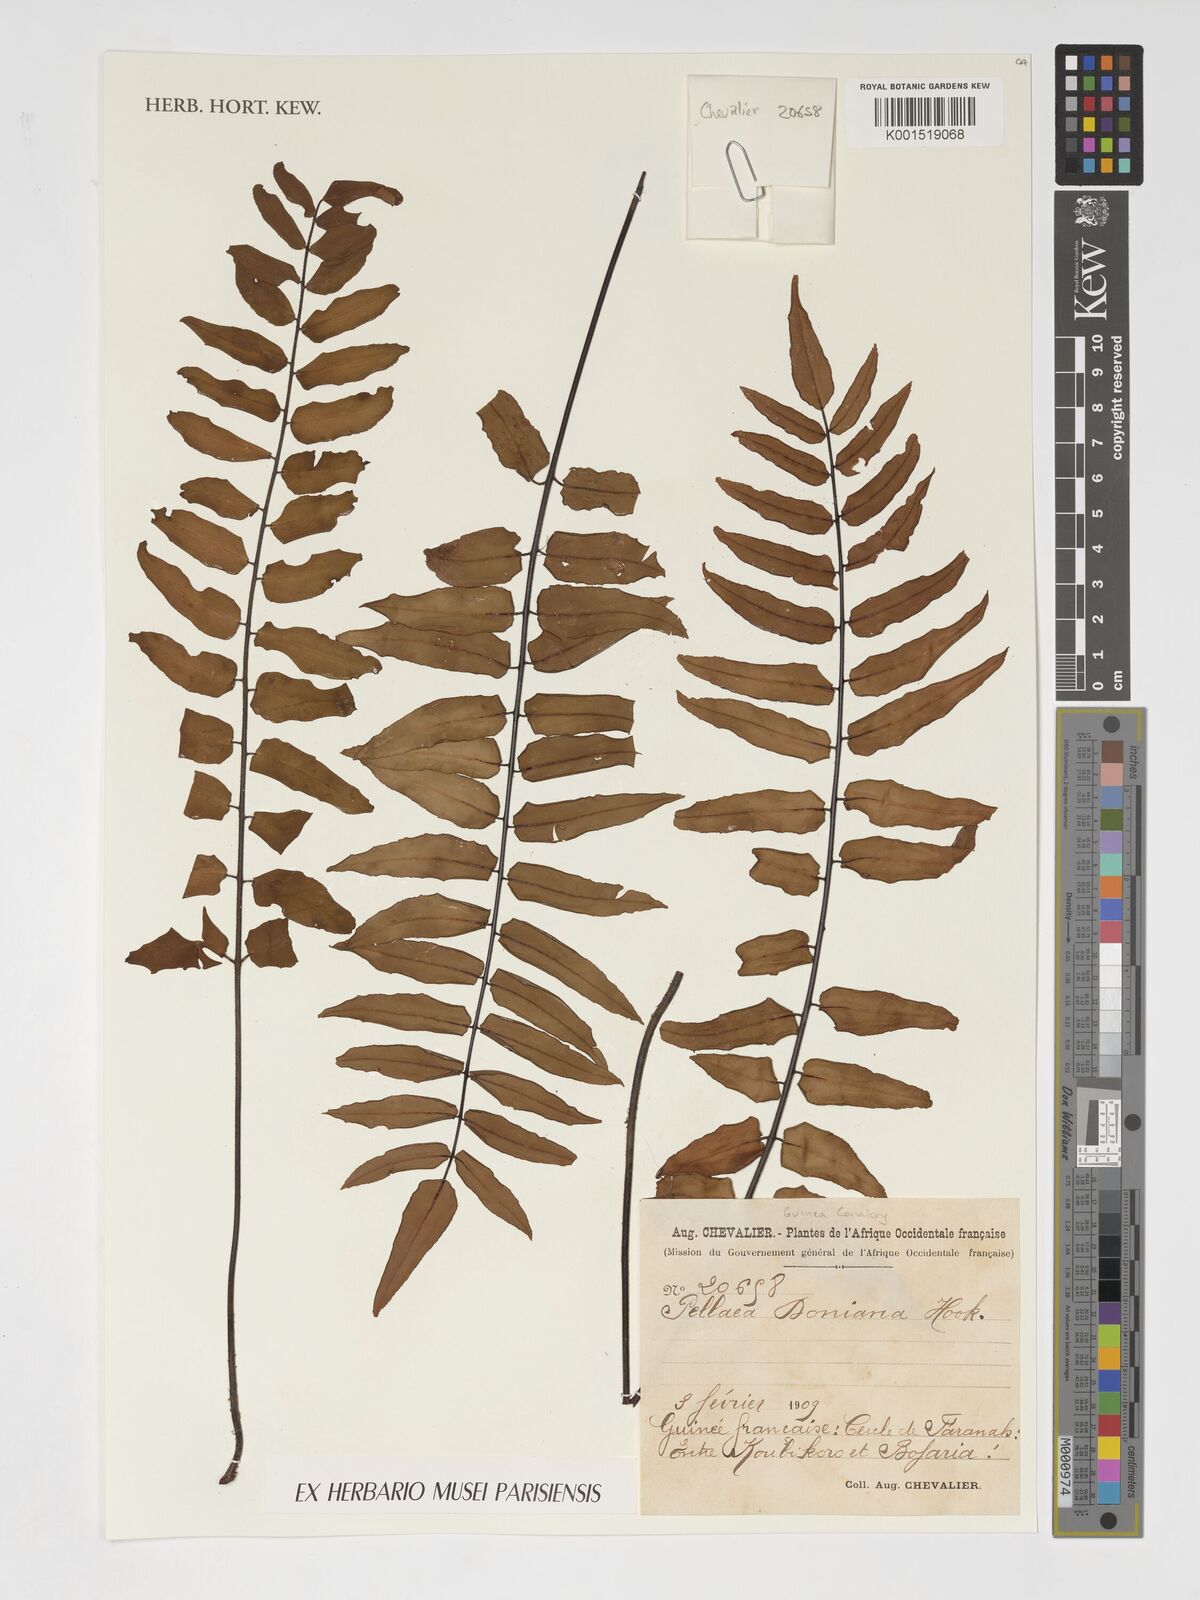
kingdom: Plantae
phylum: Tracheophyta
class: Polypodiopsida
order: Polypodiales
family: Pteridaceae
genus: Pellaea
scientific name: Pellaea doniana
